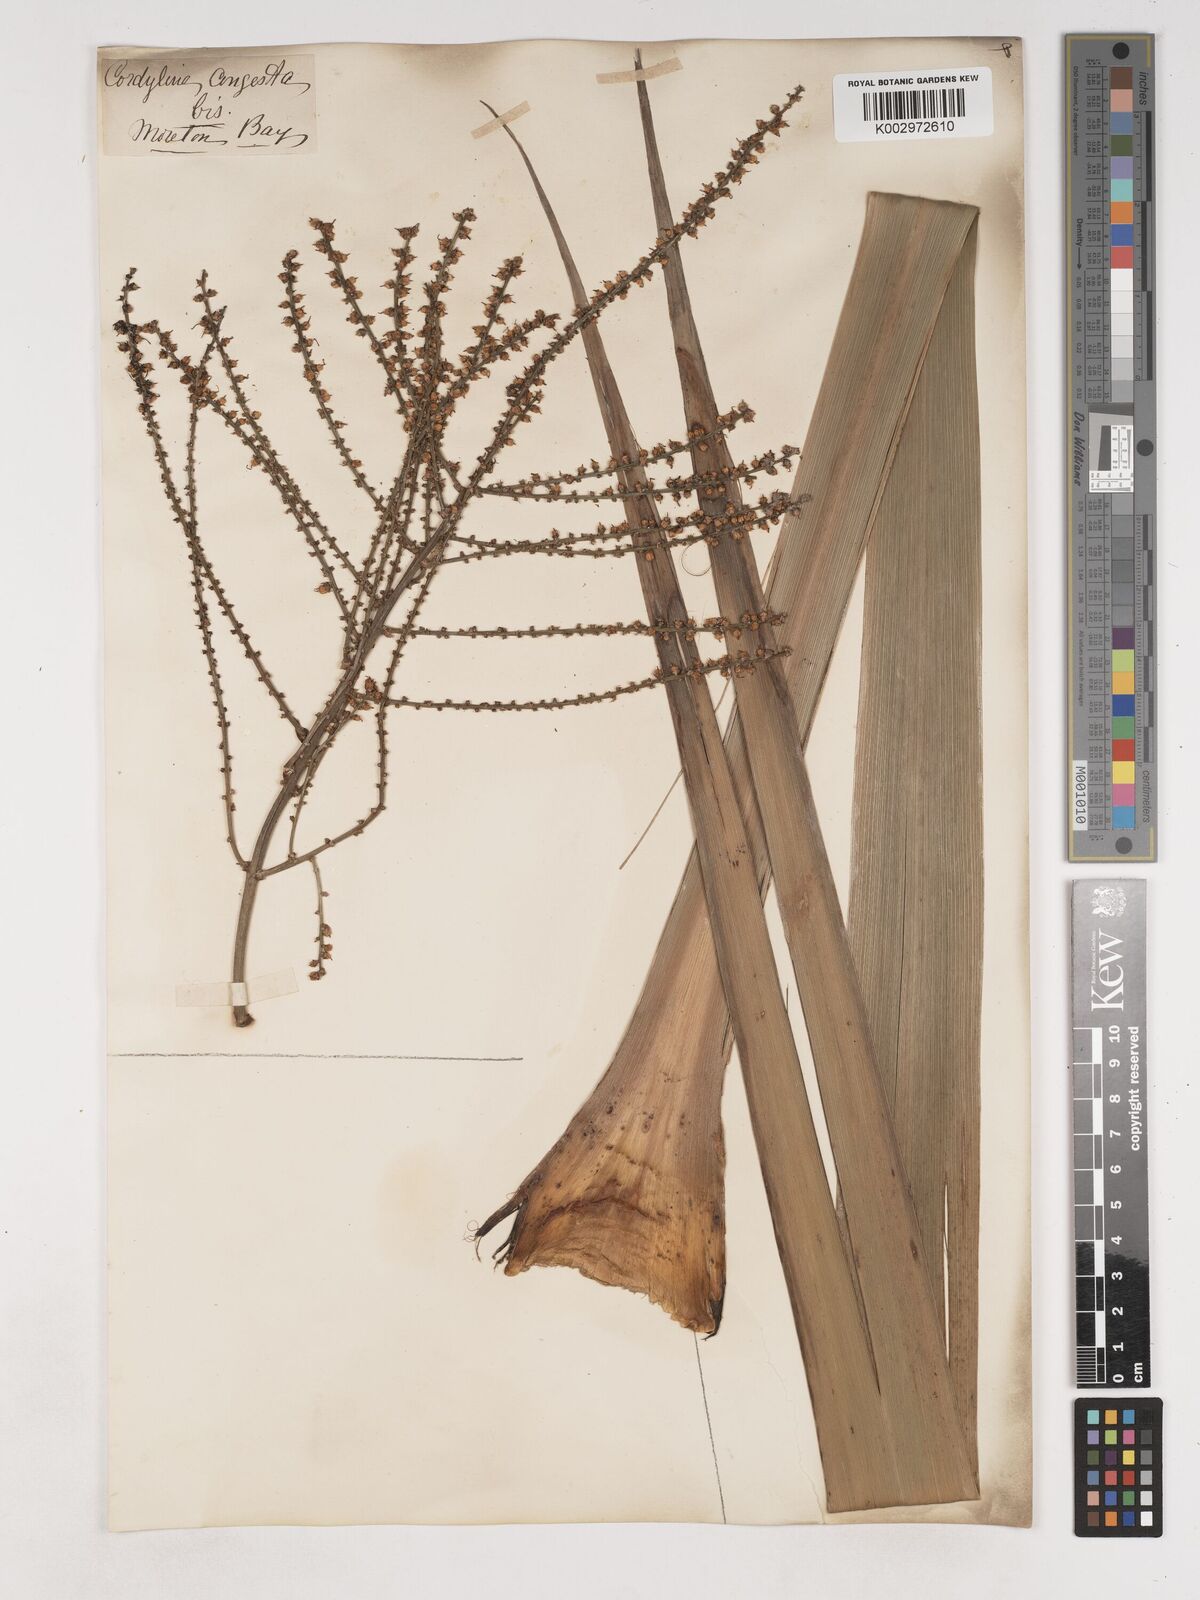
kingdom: Plantae
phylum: Tracheophyta
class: Liliopsida
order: Asparagales
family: Asparagaceae
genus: Cordyline
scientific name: Cordyline stricta
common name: Narrow-leaf palm-lily
